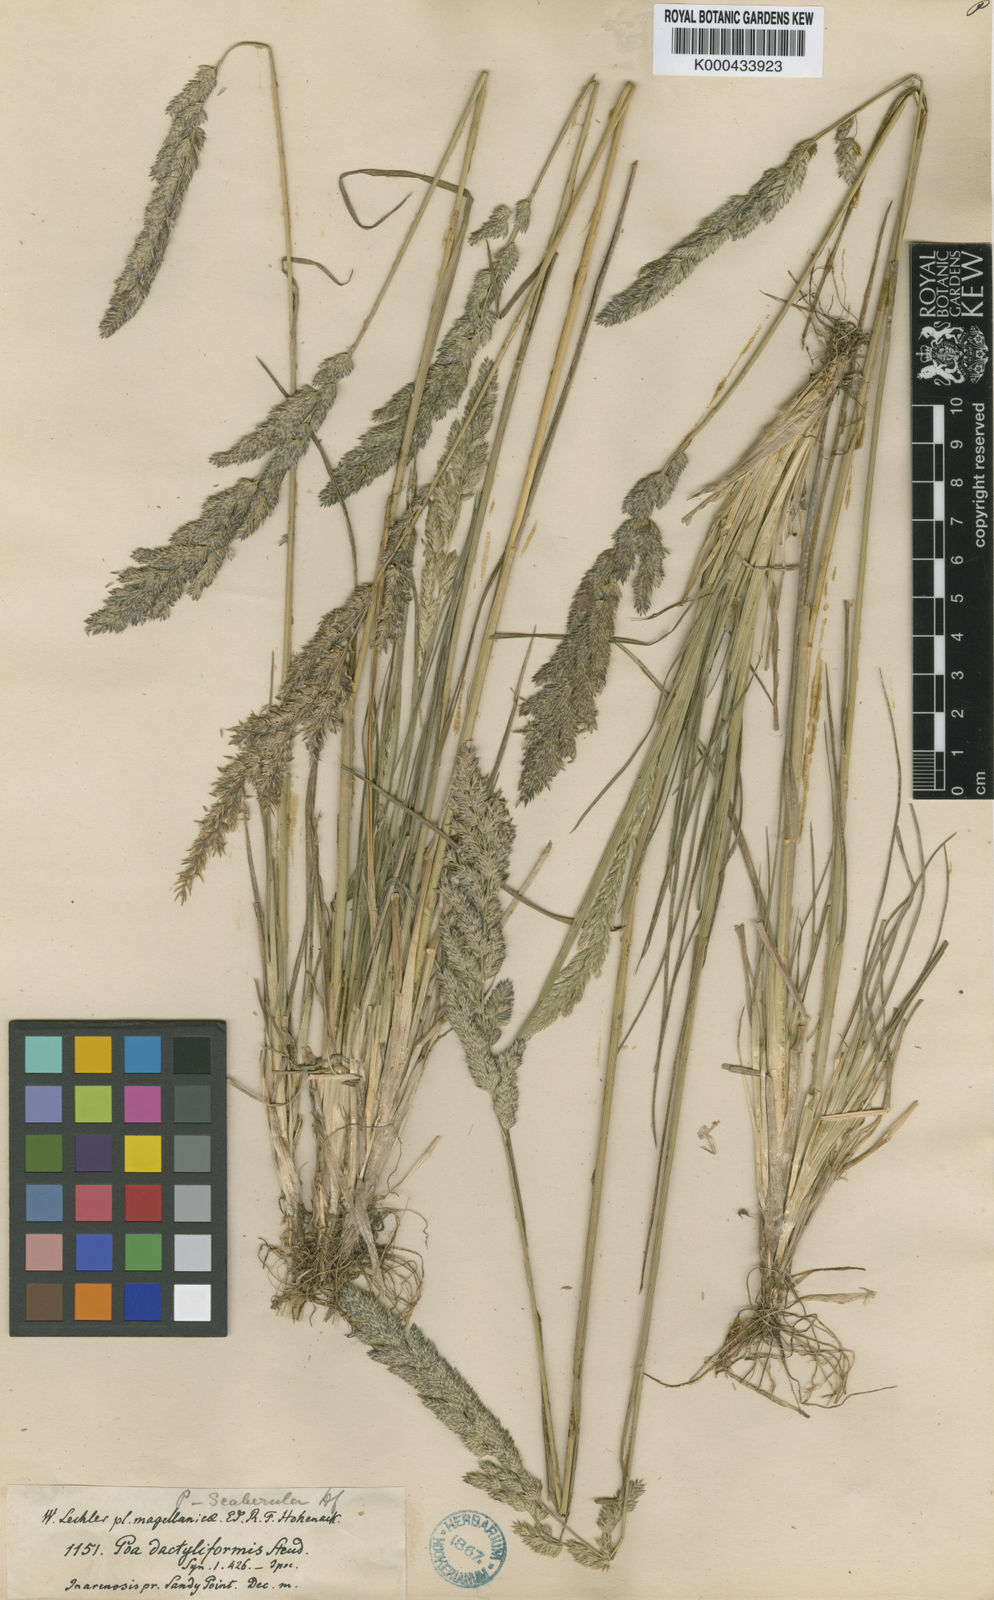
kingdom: Plantae
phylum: Tracheophyta
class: Liliopsida
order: Poales
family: Poaceae
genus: Poa
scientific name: Poa scaberula
